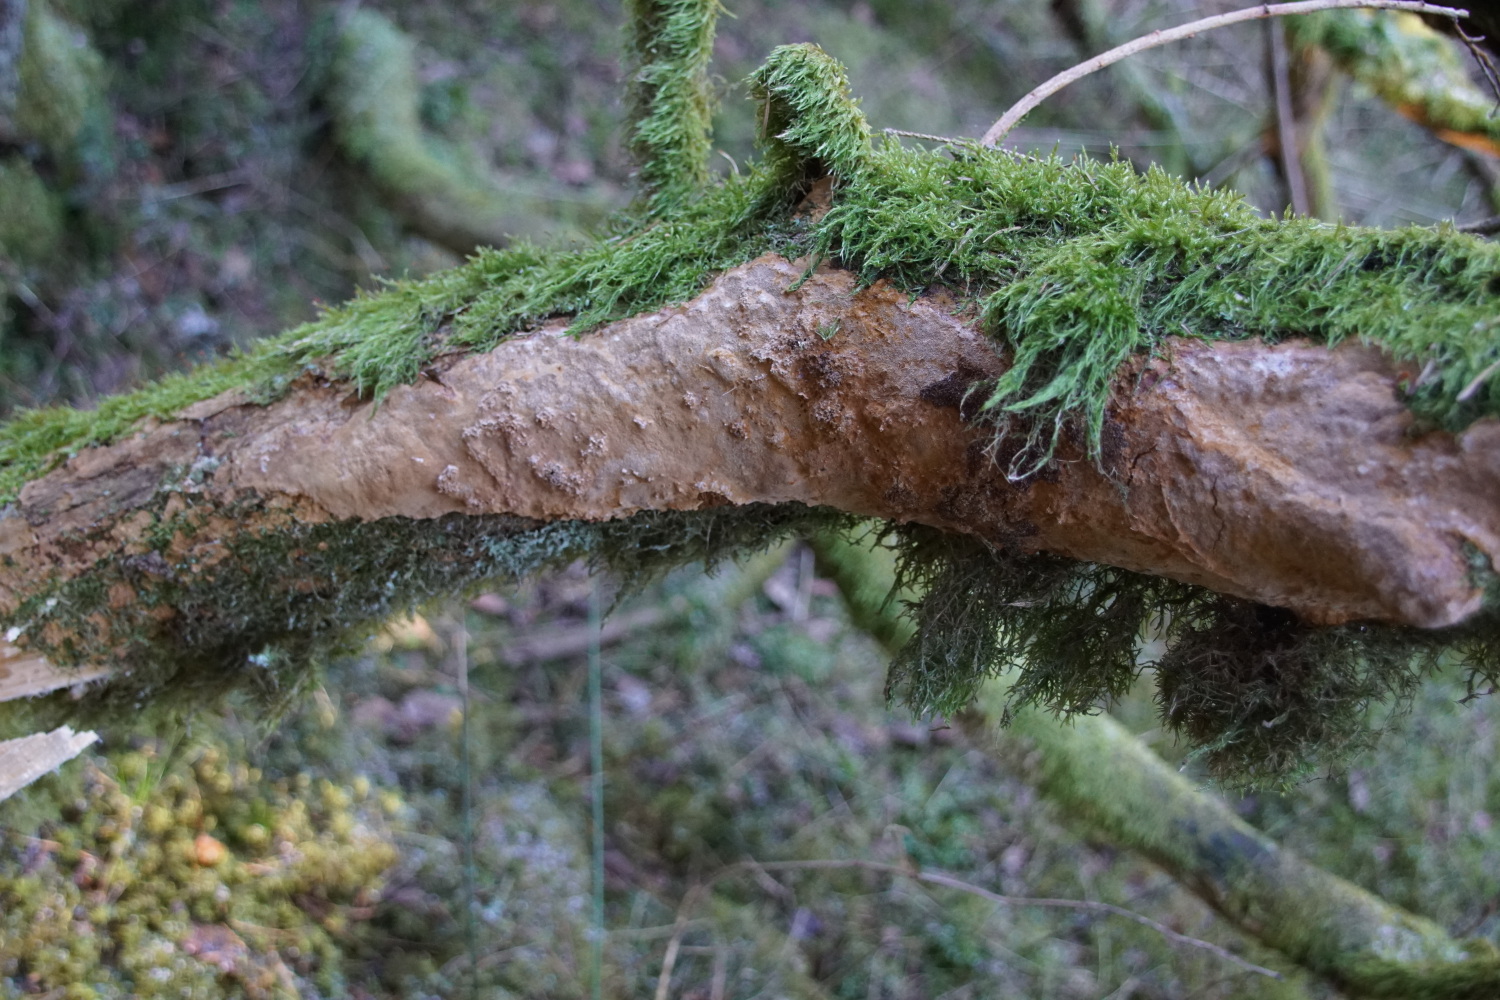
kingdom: Fungi
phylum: Basidiomycota
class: Agaricomycetes
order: Hymenochaetales
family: Hymenochaetaceae
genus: Fuscoporia
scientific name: Fuscoporia ferrea
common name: skorpe-ildporesvamp
